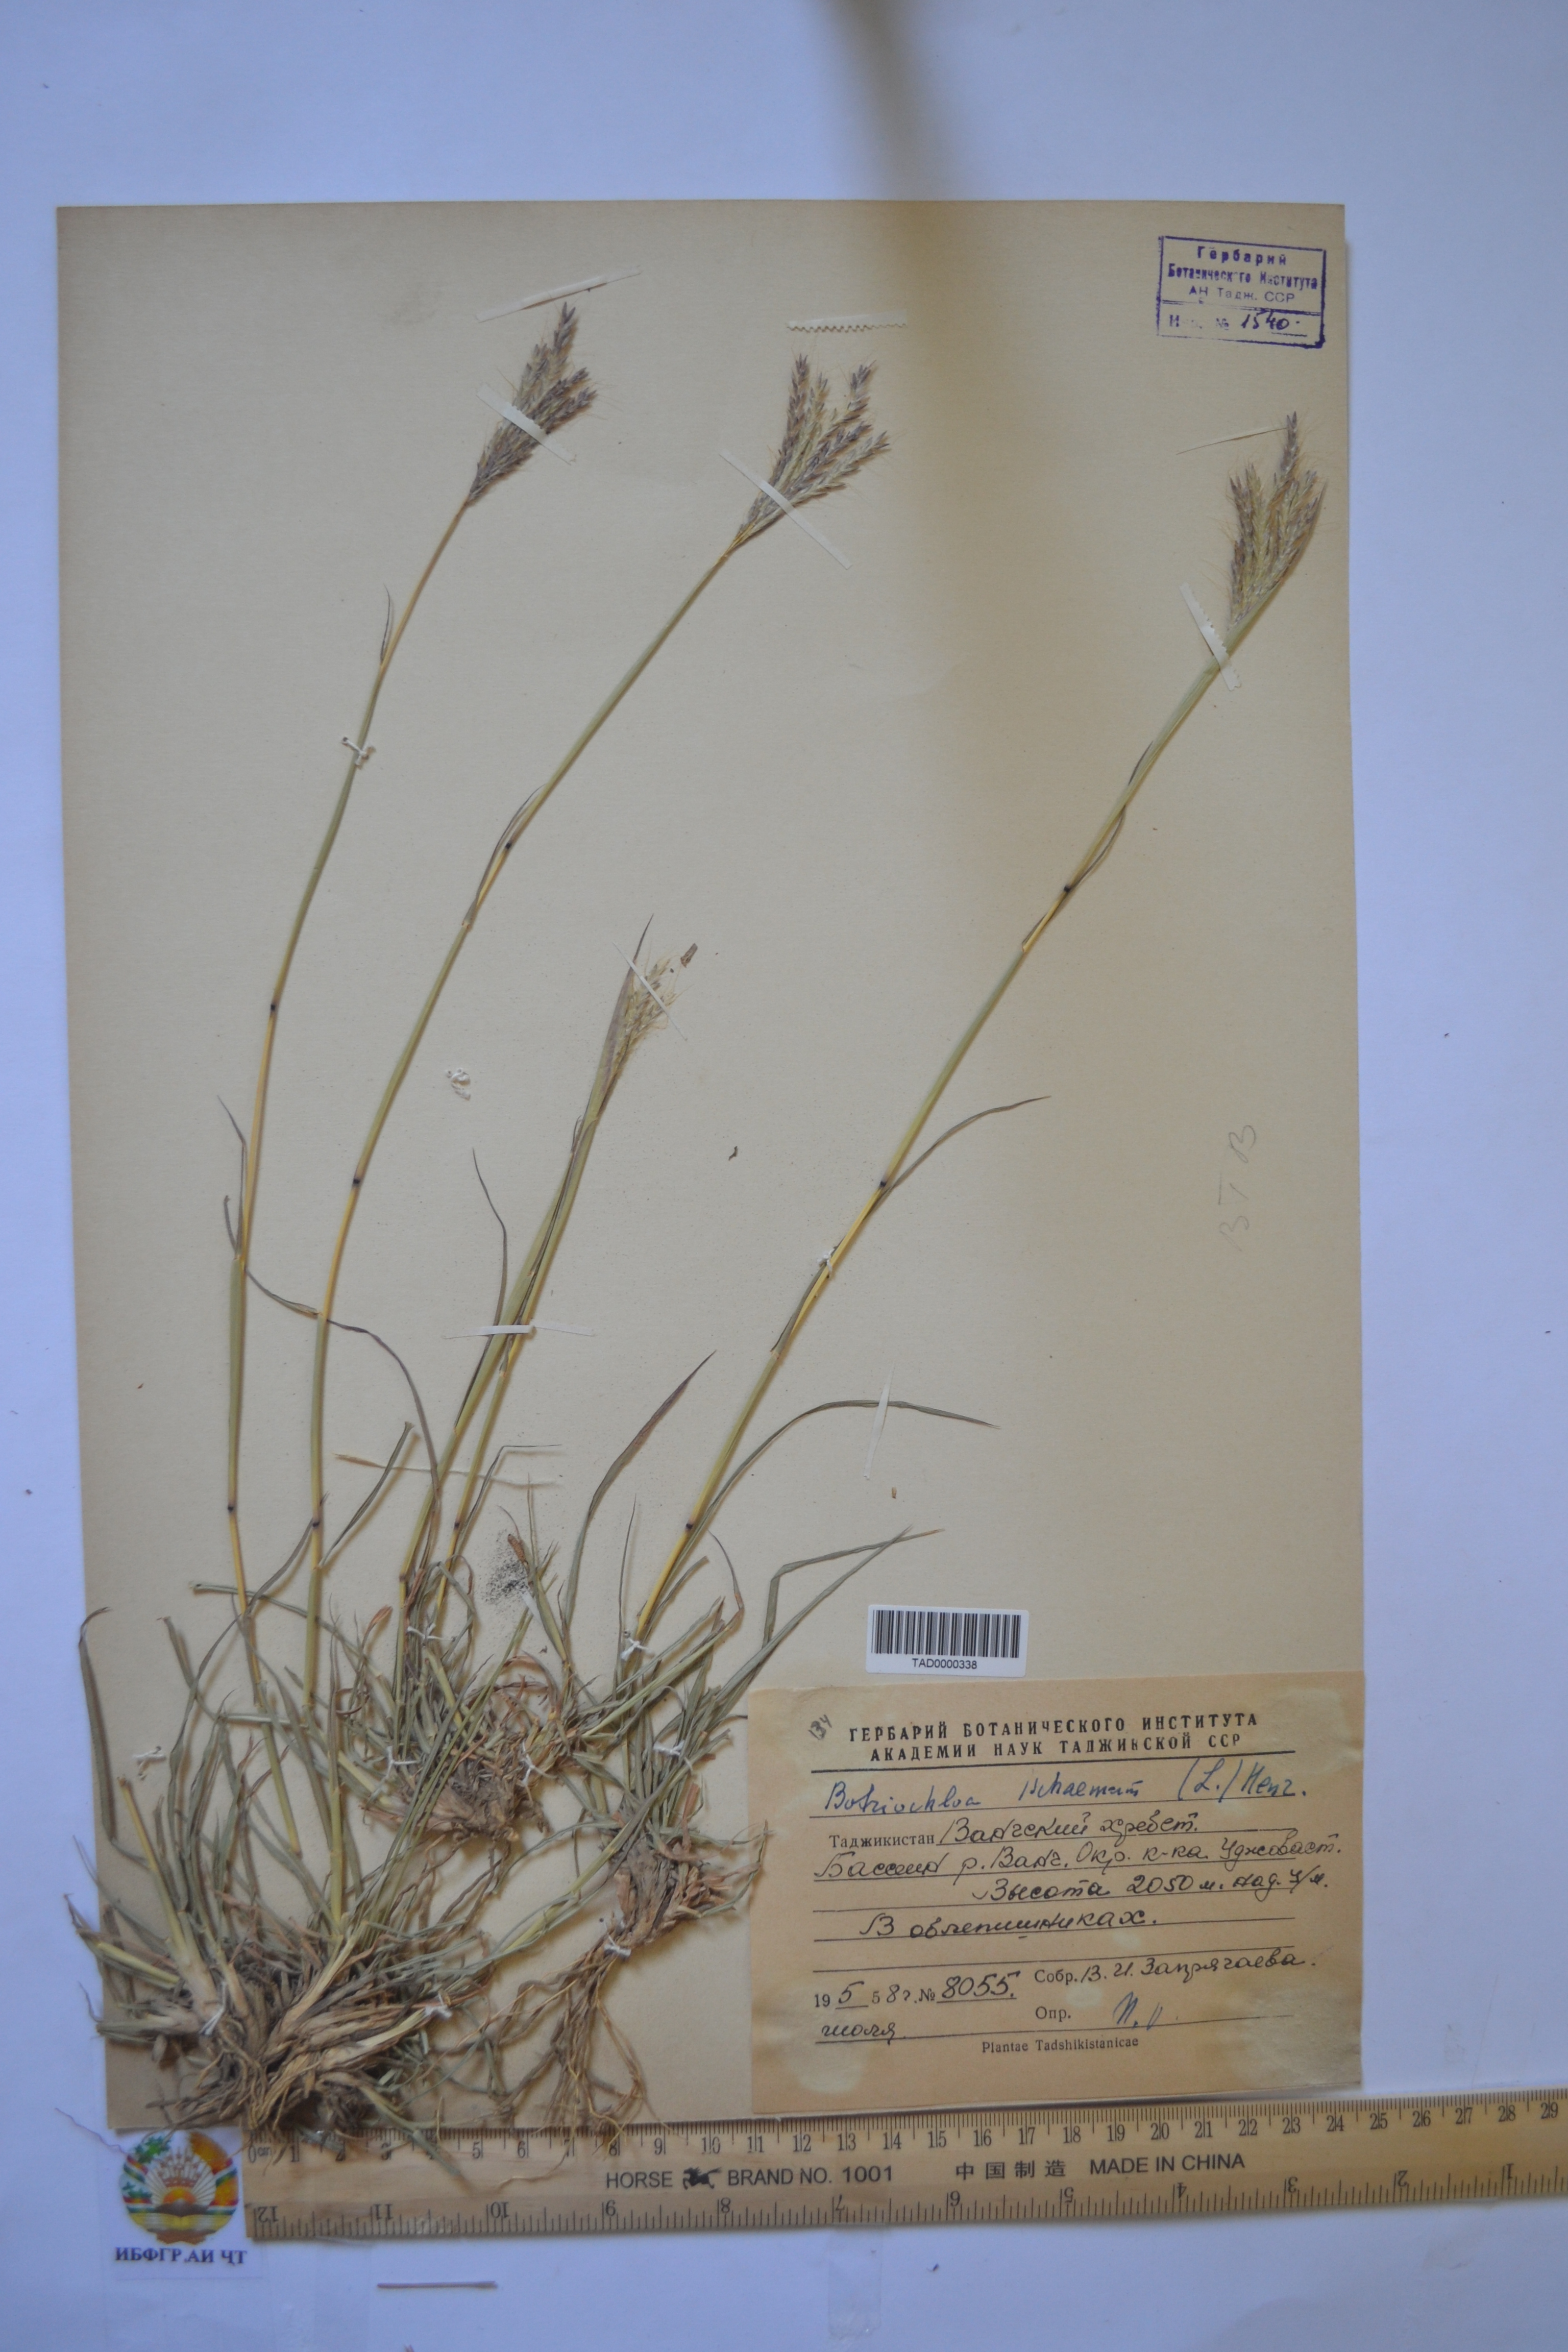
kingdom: Plantae
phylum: Tracheophyta
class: Liliopsida
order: Poales
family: Poaceae
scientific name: Poaceae
